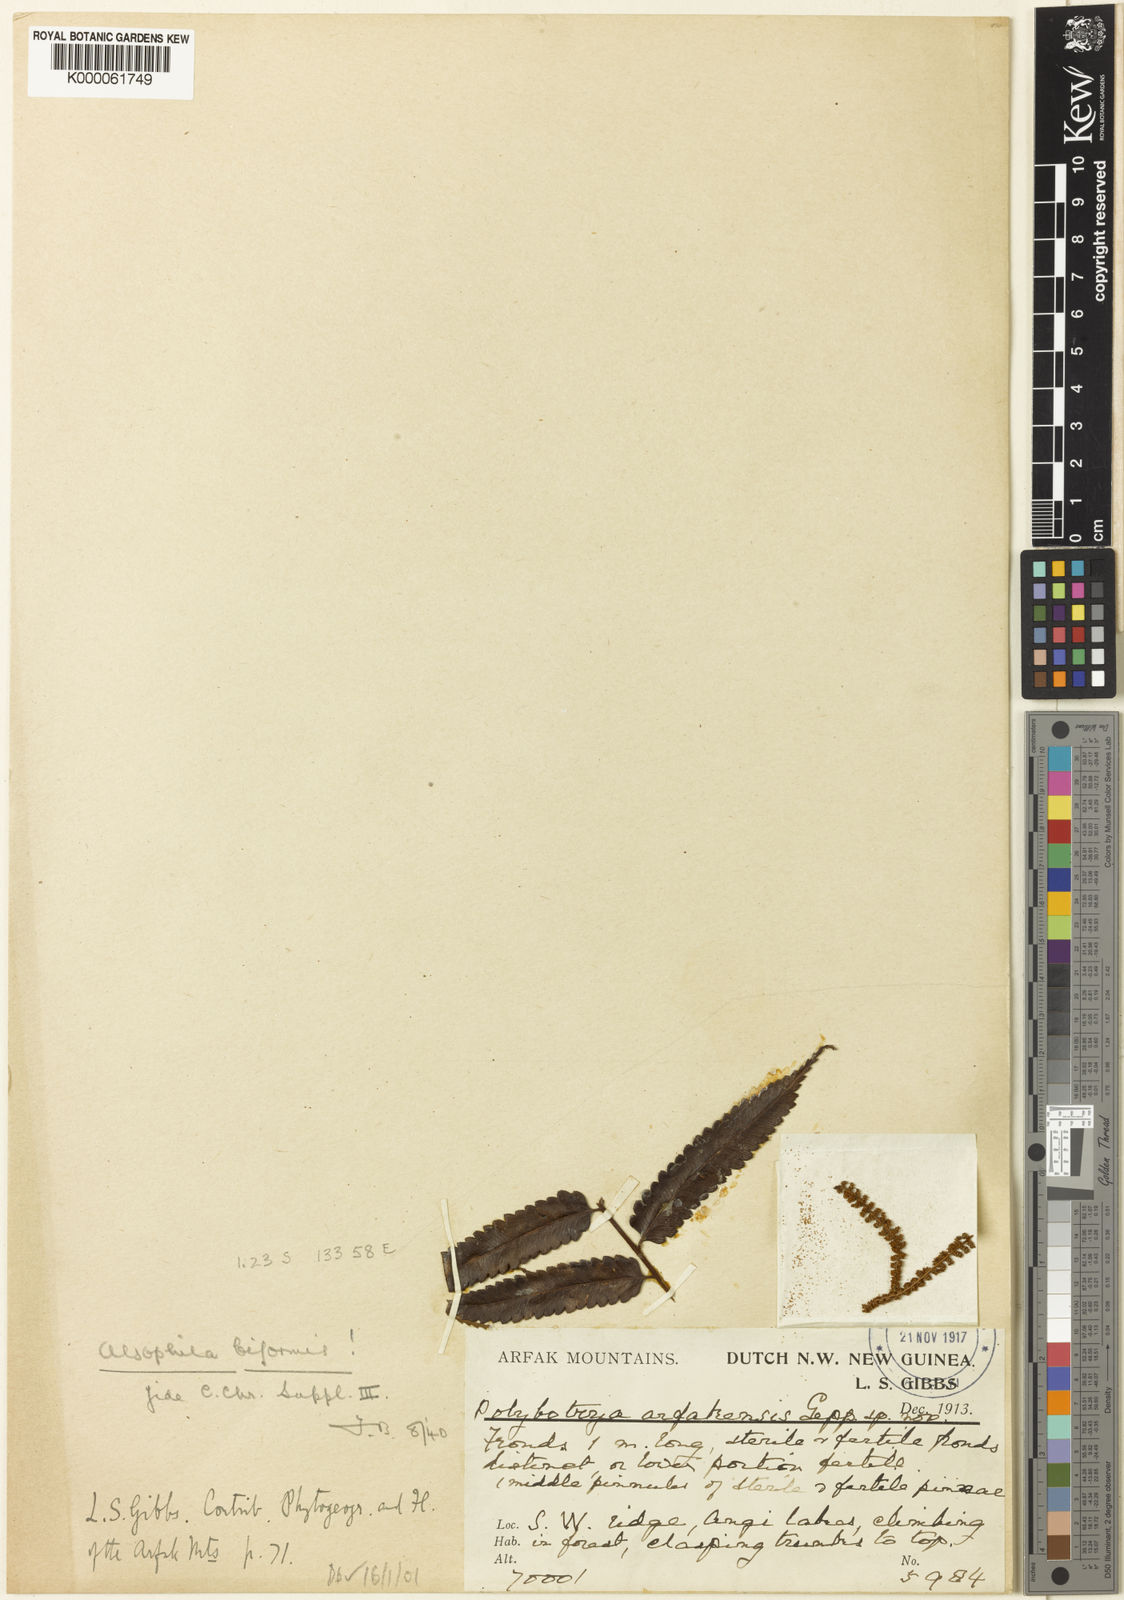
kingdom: Plantae
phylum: Tracheophyta
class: Polypodiopsida
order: Cyatheales
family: Cyatheaceae
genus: Gymnosphaera
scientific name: Gymnosphaera biformis
